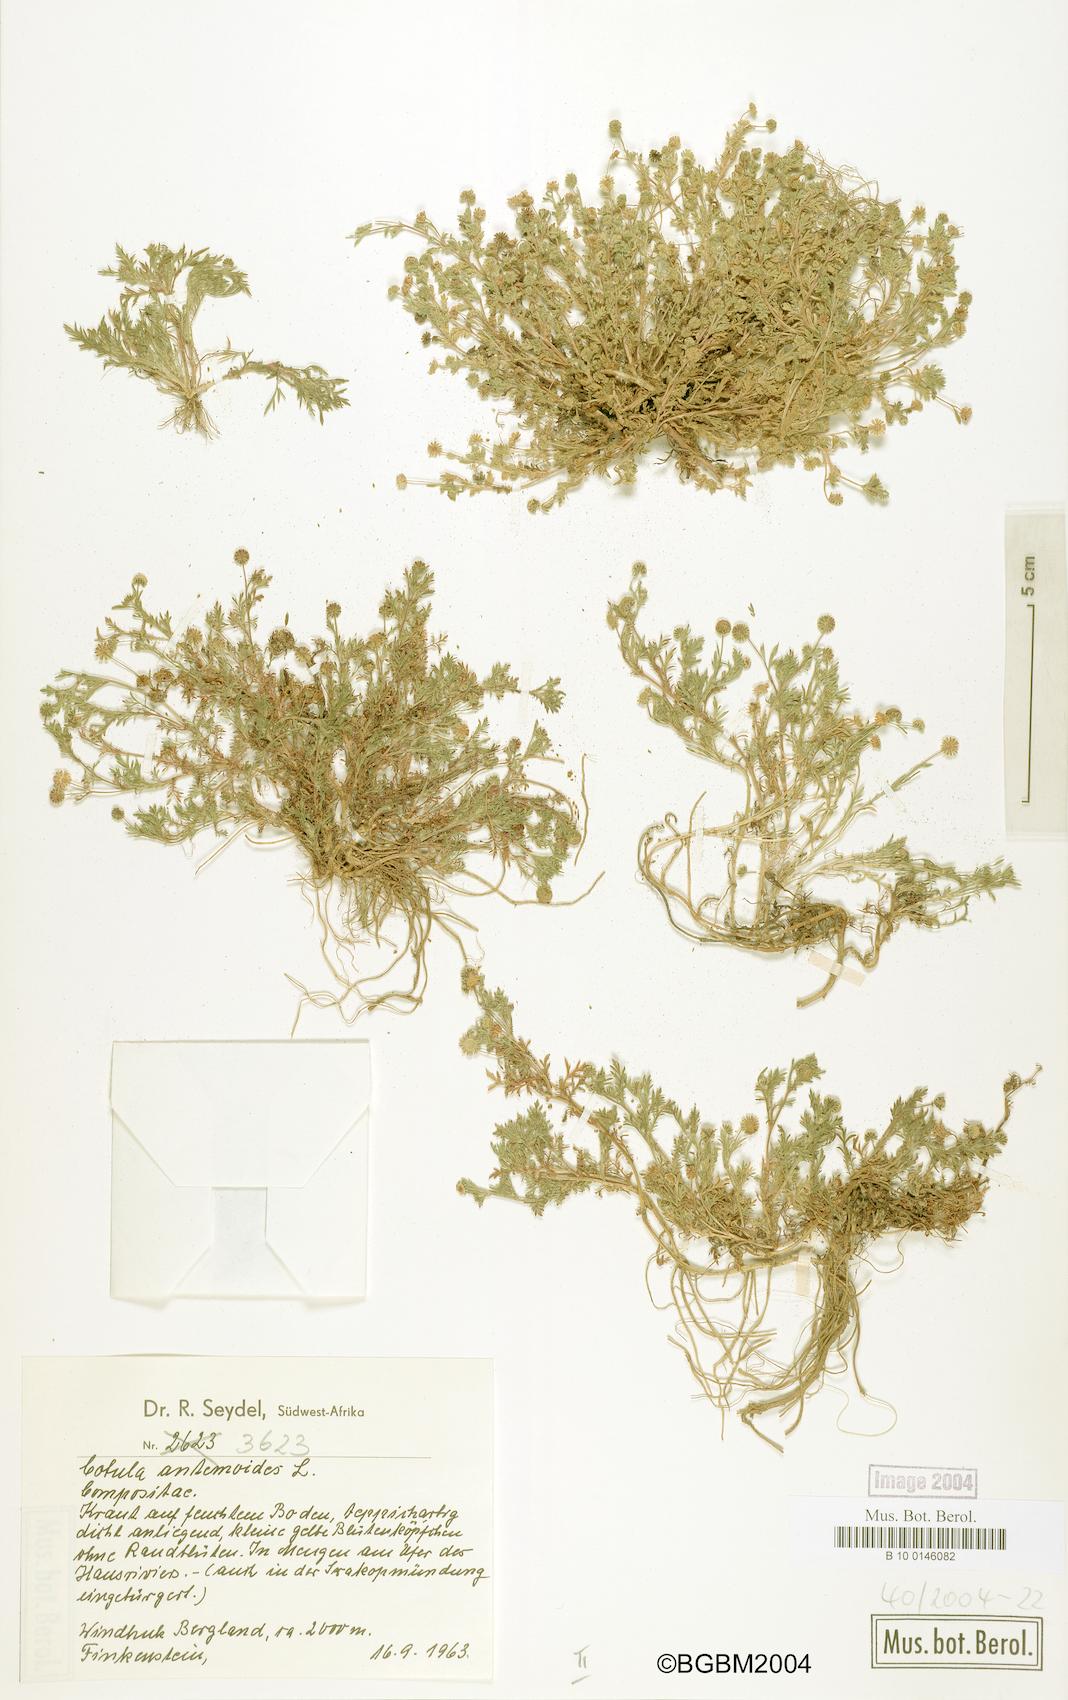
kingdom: Plantae
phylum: Tracheophyta
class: Magnoliopsida
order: Asterales
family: Asteraceae
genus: Cotula
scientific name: Cotula anthemoides
